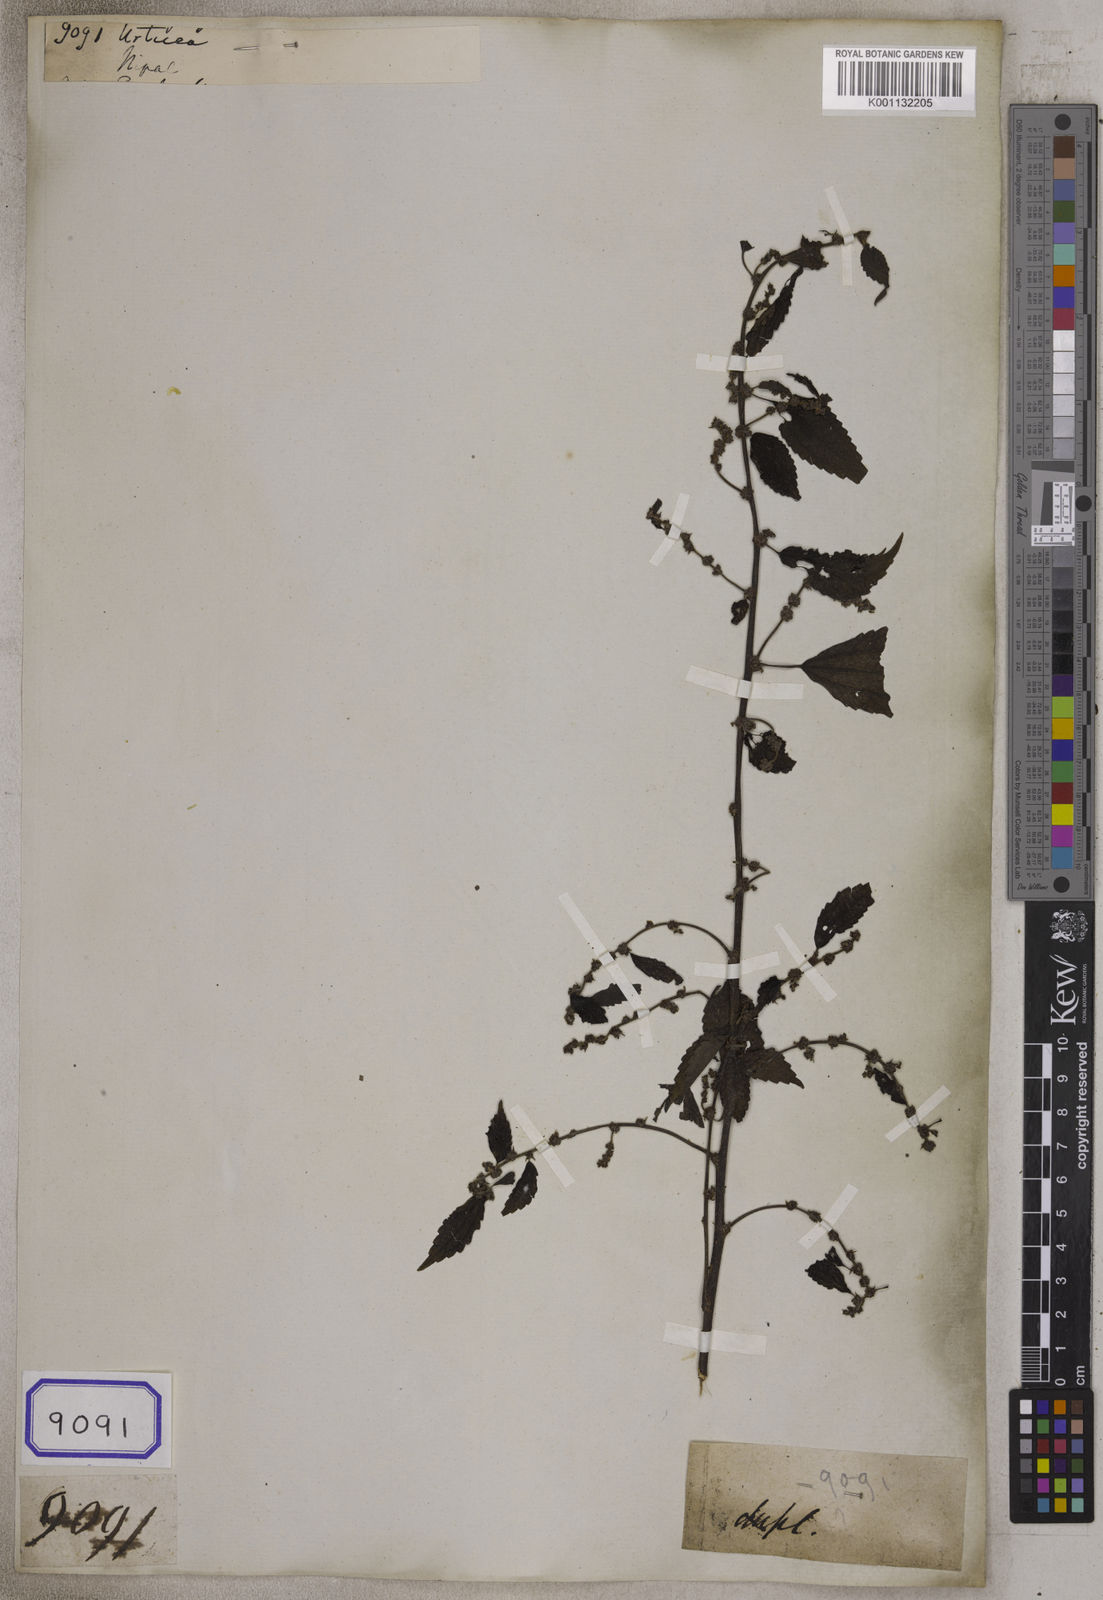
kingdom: Plantae
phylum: Tracheophyta
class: Magnoliopsida
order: Rosales
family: Urticaceae
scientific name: Urticaceae
